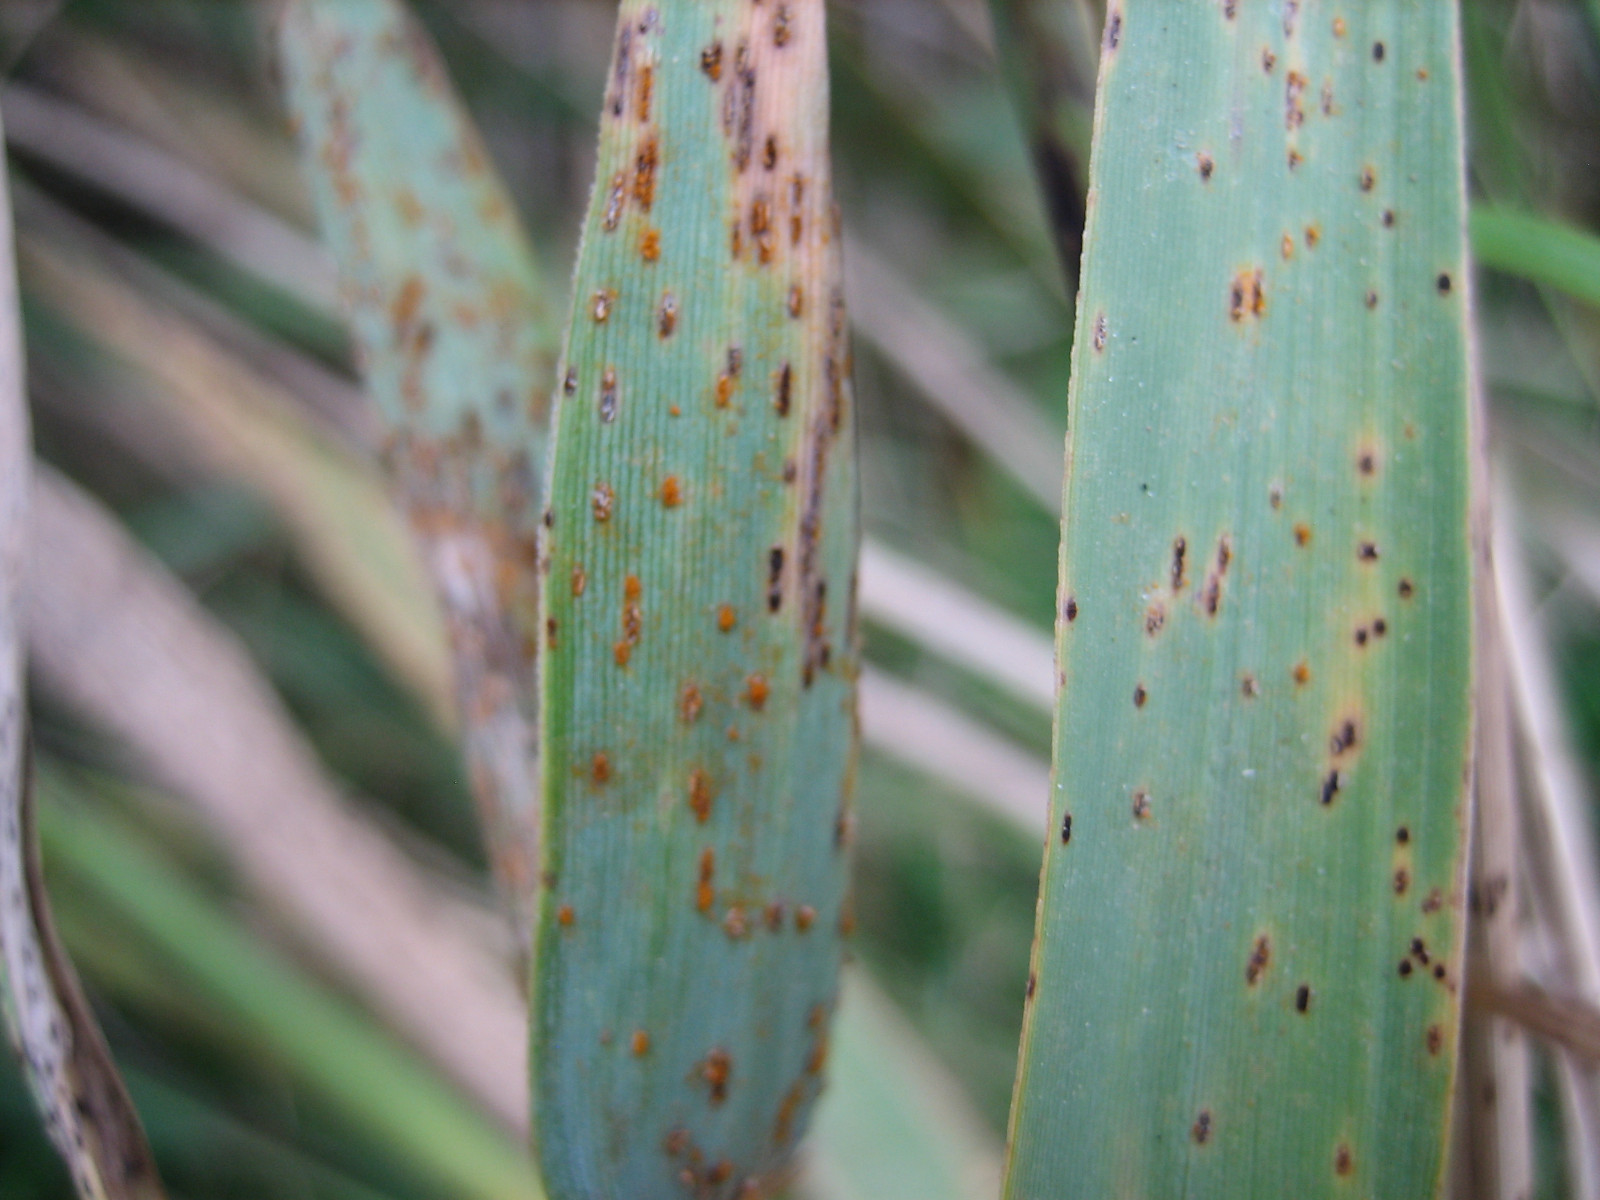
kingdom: Fungi
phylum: Basidiomycota
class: Pucciniomycetes
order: Pucciniales
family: Pucciniaceae
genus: Puccinia
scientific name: Puccinia phragmitis
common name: tagrør-tvecellerust
